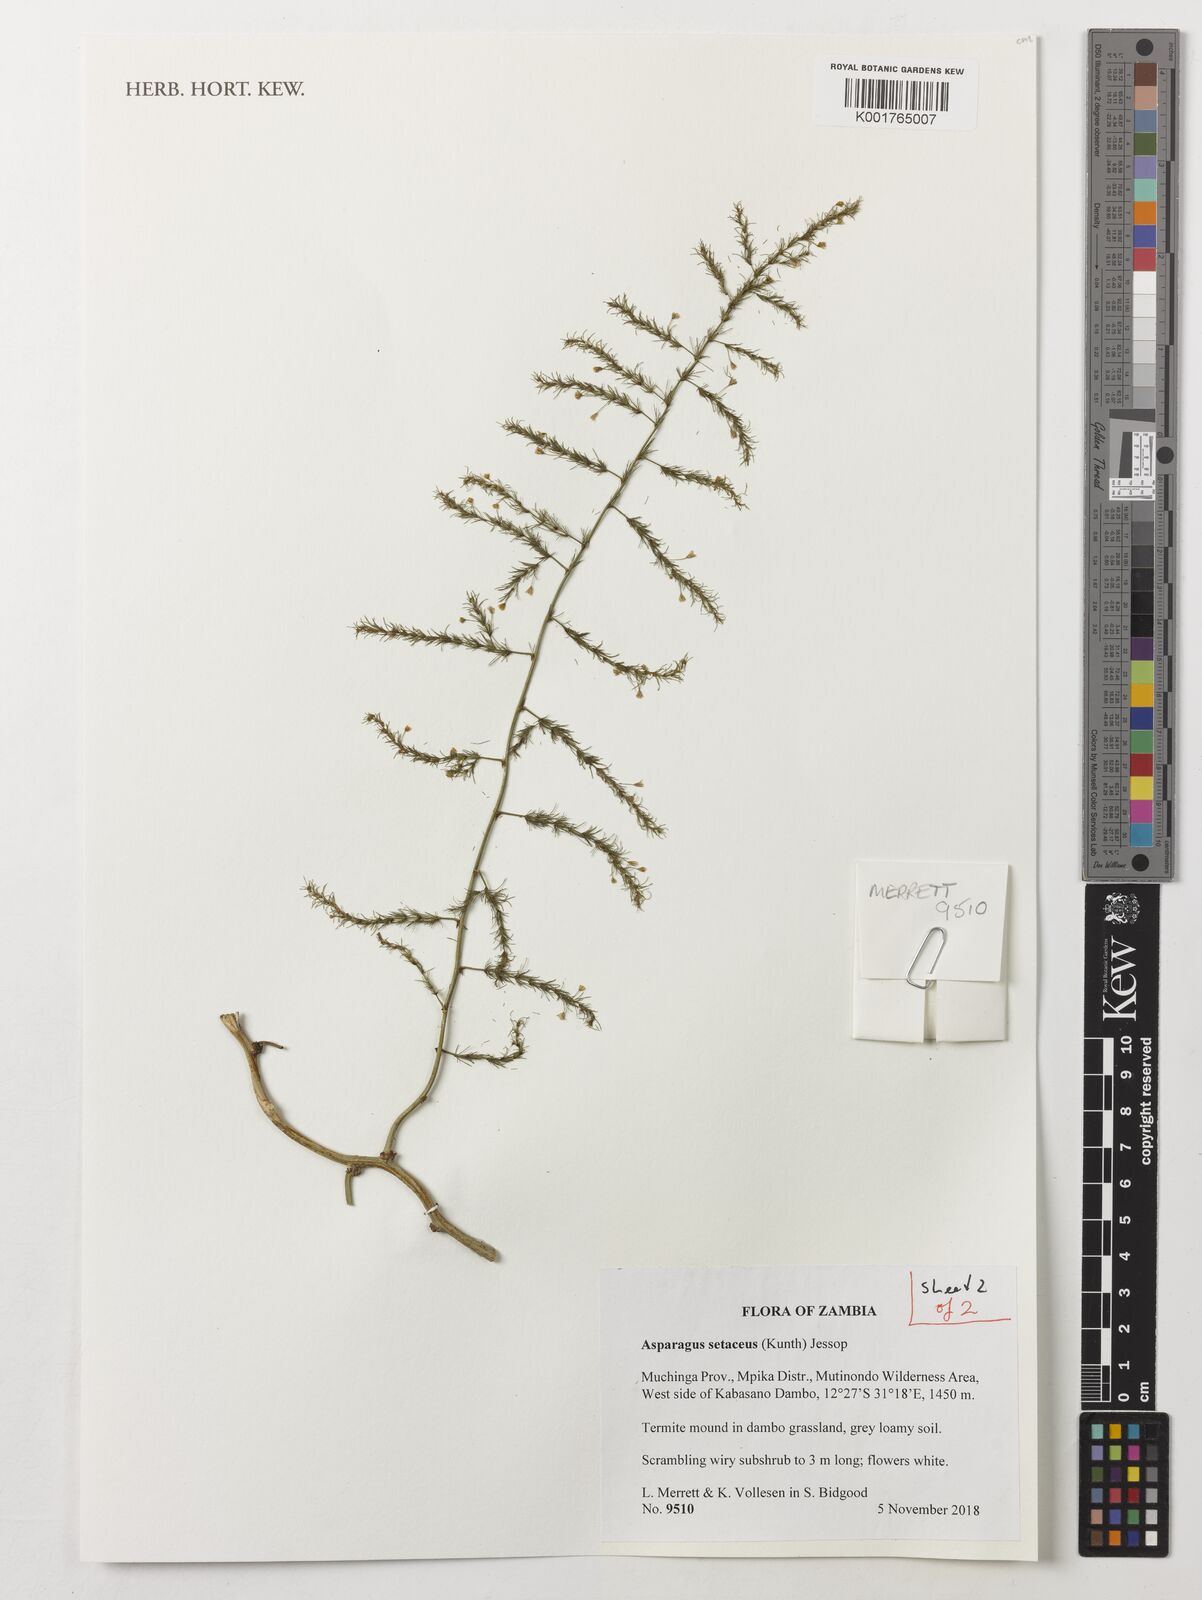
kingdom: Plantae
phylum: Tracheophyta
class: Liliopsida
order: Asparagales
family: Asparagaceae
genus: Asparagus
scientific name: Asparagus setaceus
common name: Common asparagus fern
